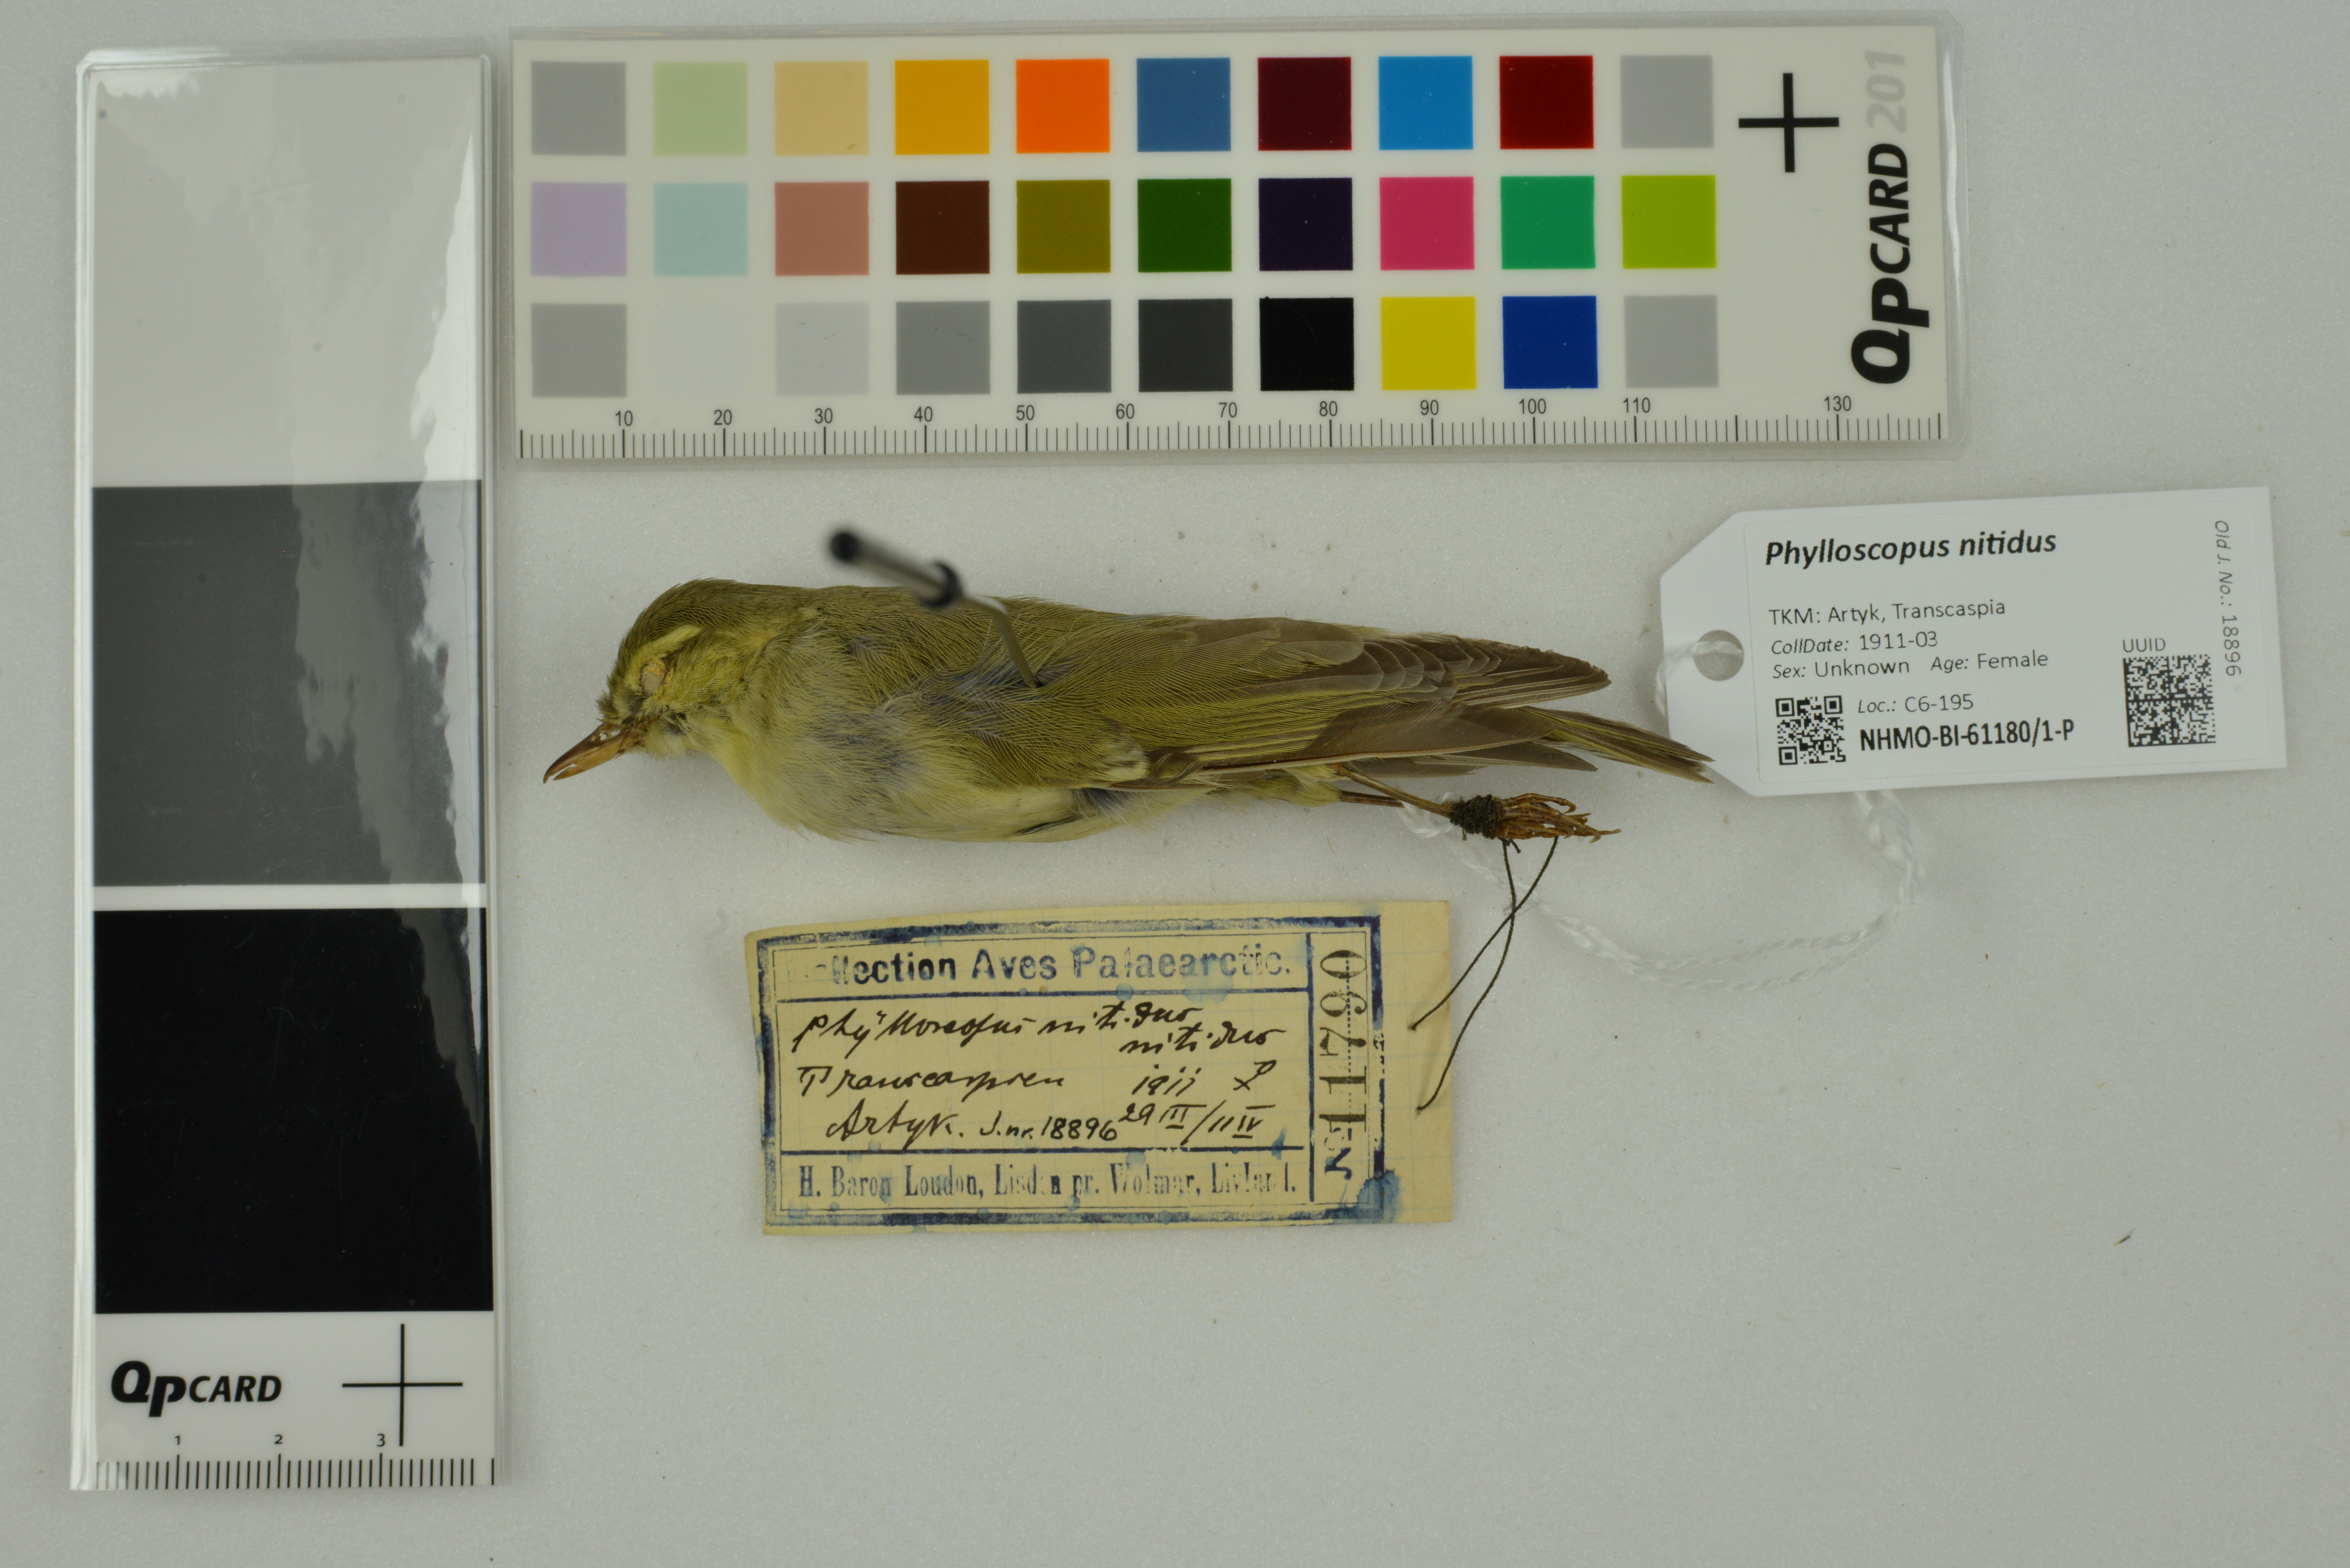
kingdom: Animalia
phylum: Chordata
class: Aves
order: Passeriformes
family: Phylloscopidae
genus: Phylloscopus
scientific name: Phylloscopus nitidus
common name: Green warbler
